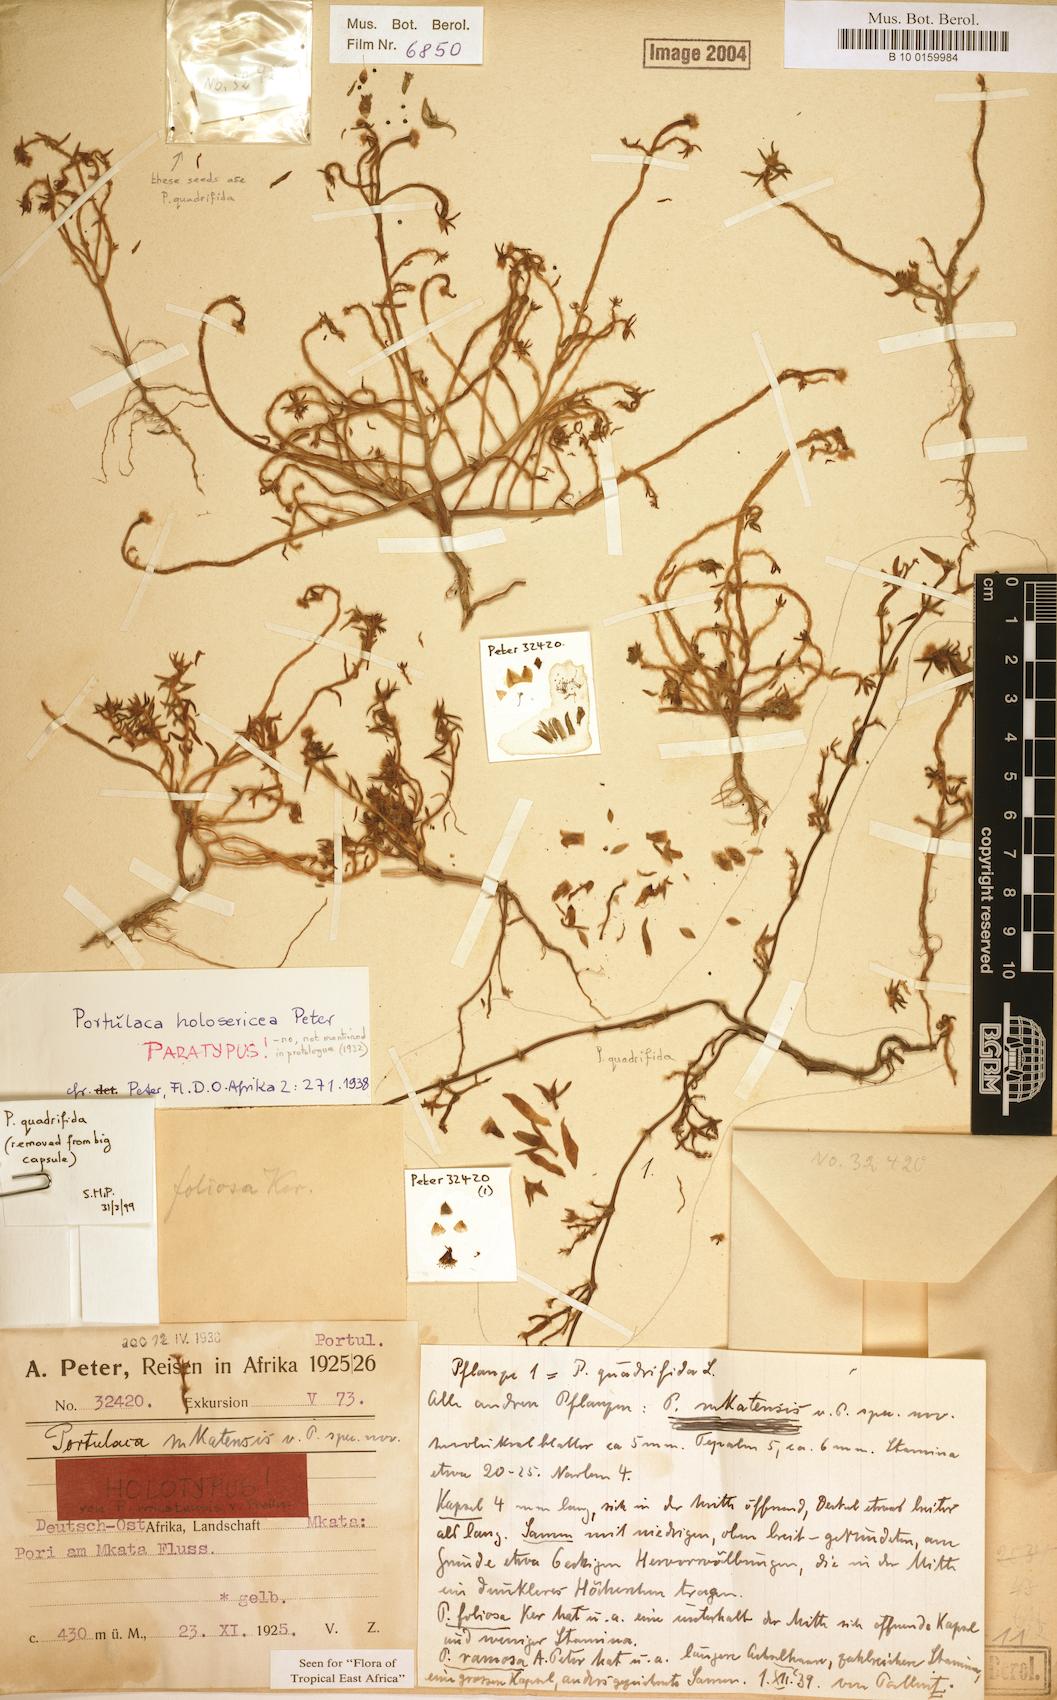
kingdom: Plantae
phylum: Tracheophyta
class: Magnoliopsida
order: Caryophyllales
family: Portulacaceae
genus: Portulaca
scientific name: Portulaca kermesina
